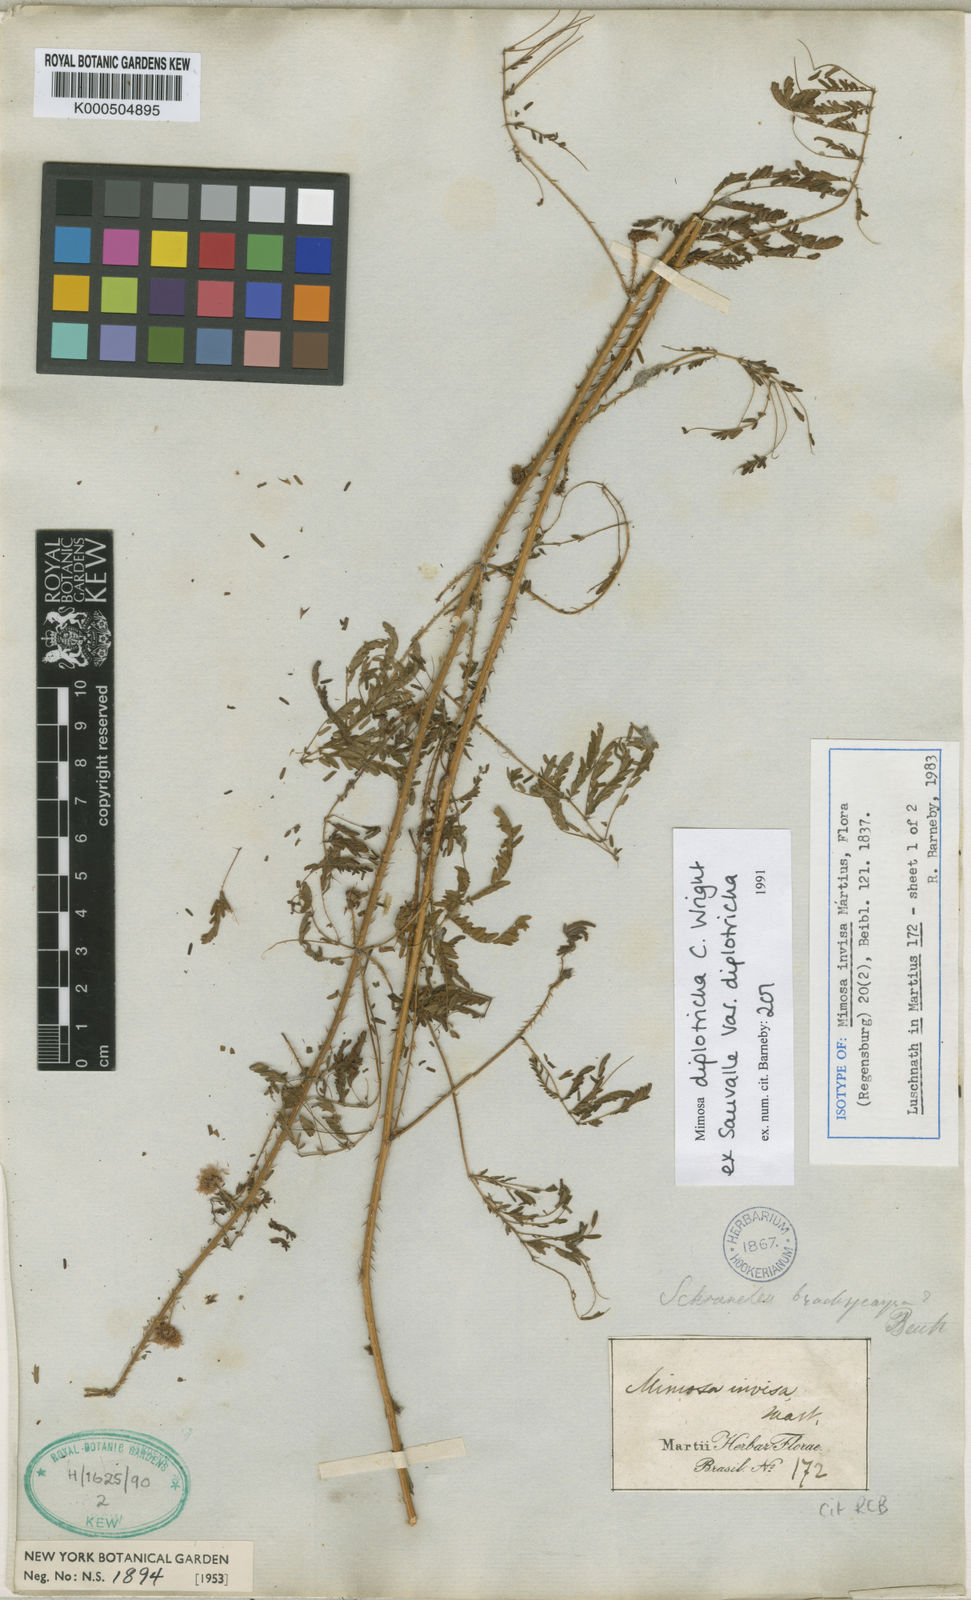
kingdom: Plantae
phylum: Tracheophyta
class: Magnoliopsida
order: Fabales
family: Fabaceae
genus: Mimosa
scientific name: Mimosa diplotricha
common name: Giant sensitive-plant
